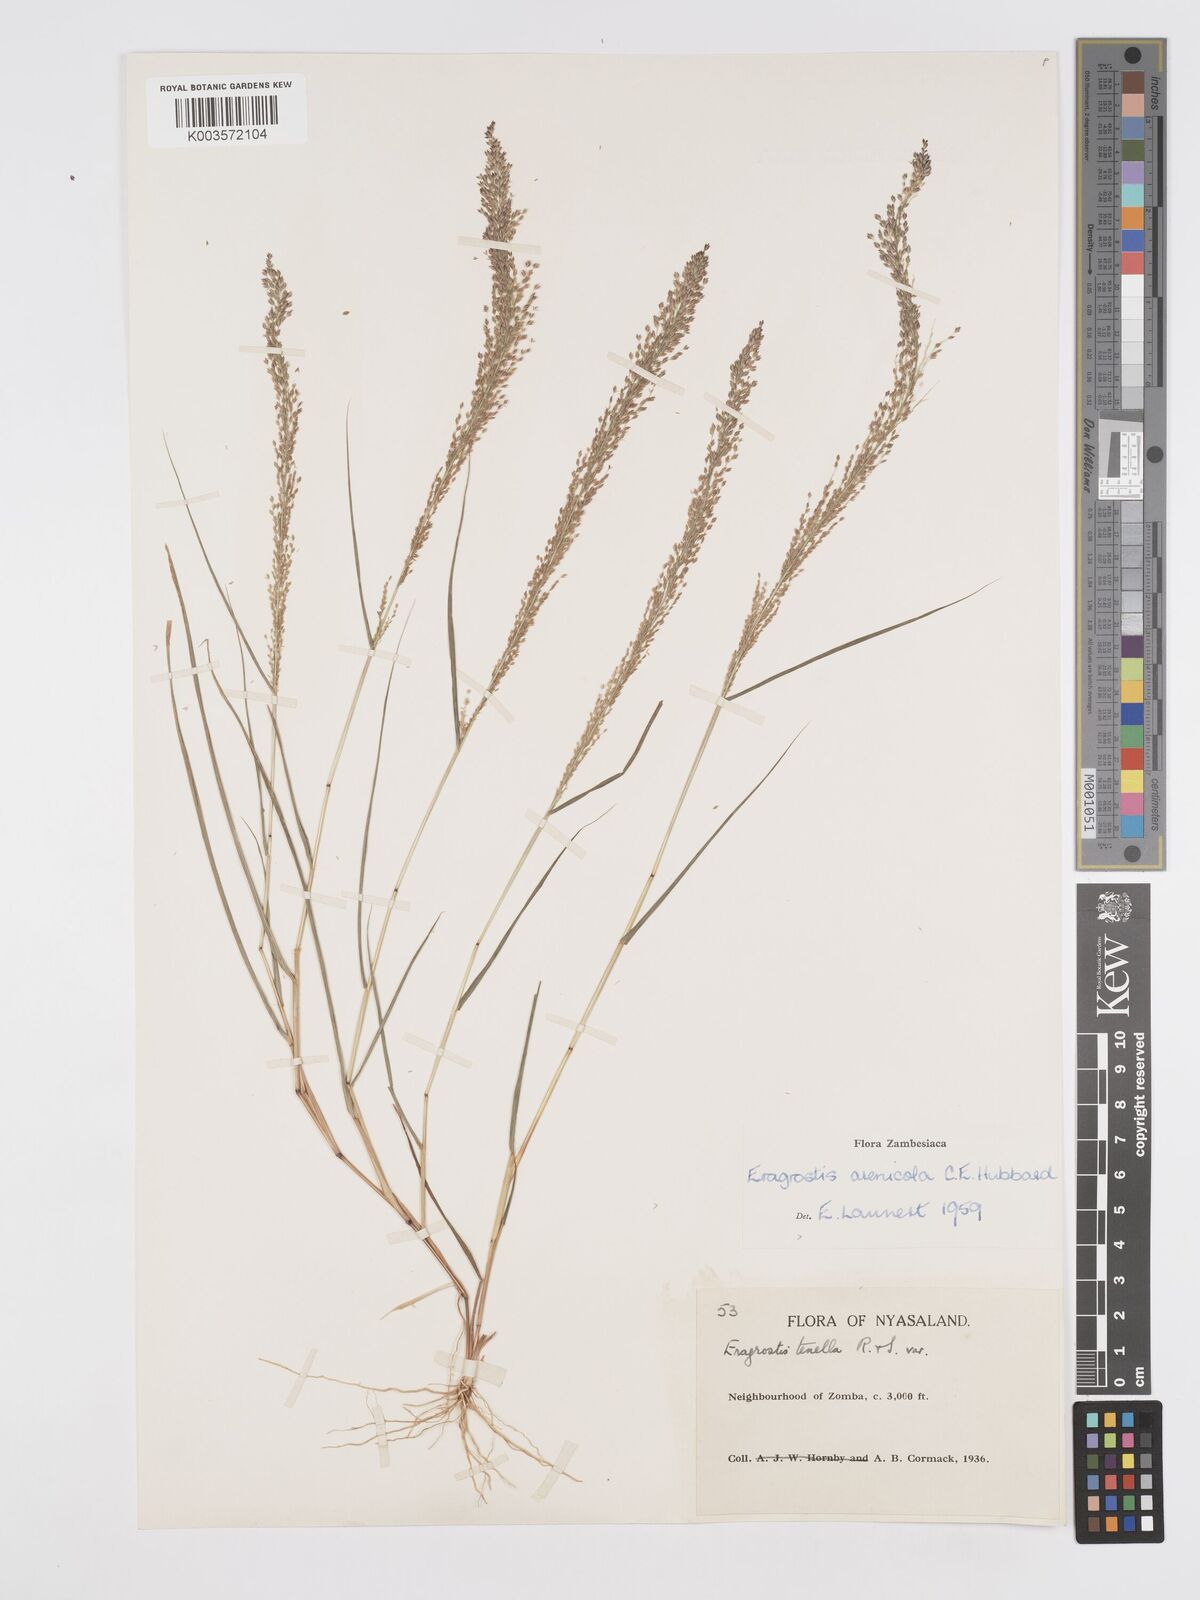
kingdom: Plantae
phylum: Tracheophyta
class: Liliopsida
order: Poales
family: Poaceae
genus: Eragrostis
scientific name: Eragrostis arenicola
